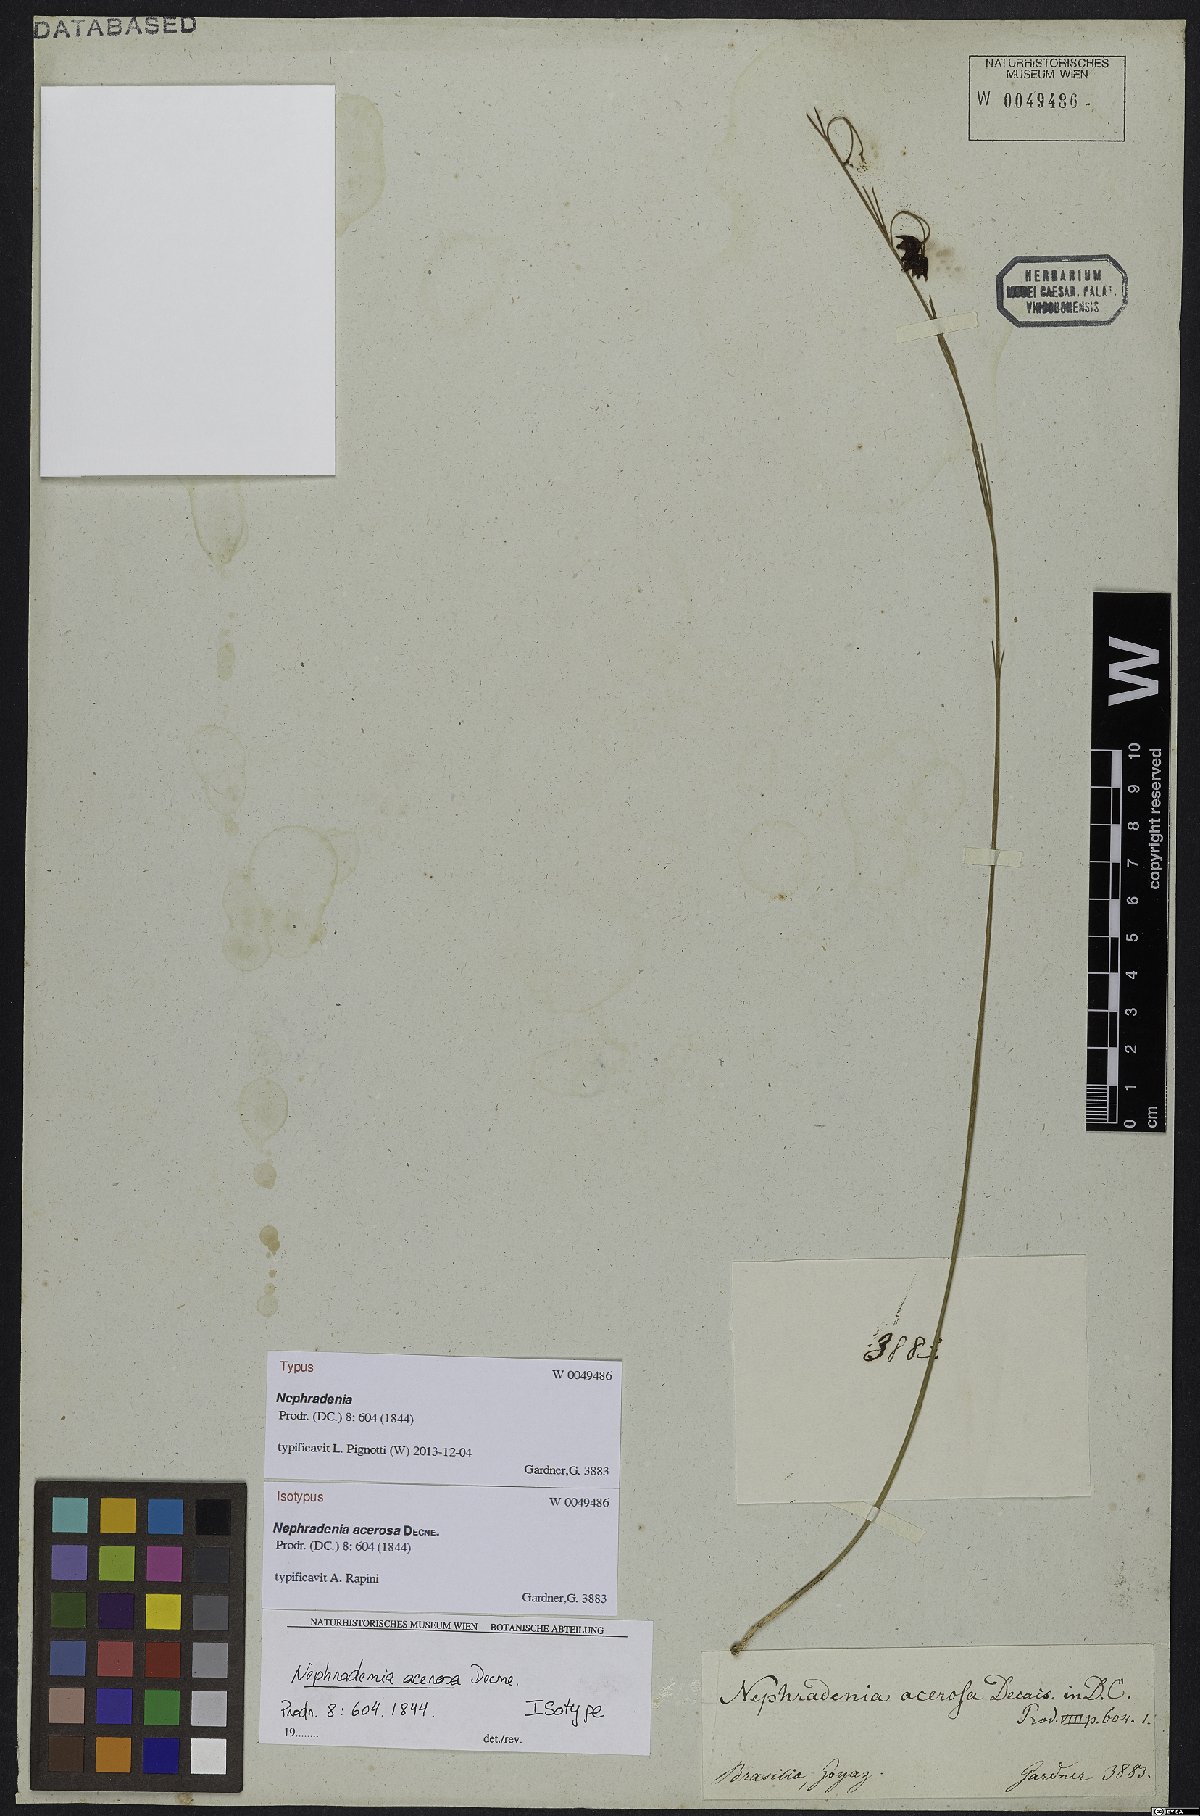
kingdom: Plantae
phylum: Tracheophyta
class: Magnoliopsida
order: Gentianales
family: Apocynaceae
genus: Nephradenia
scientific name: Nephradenia acerosa
